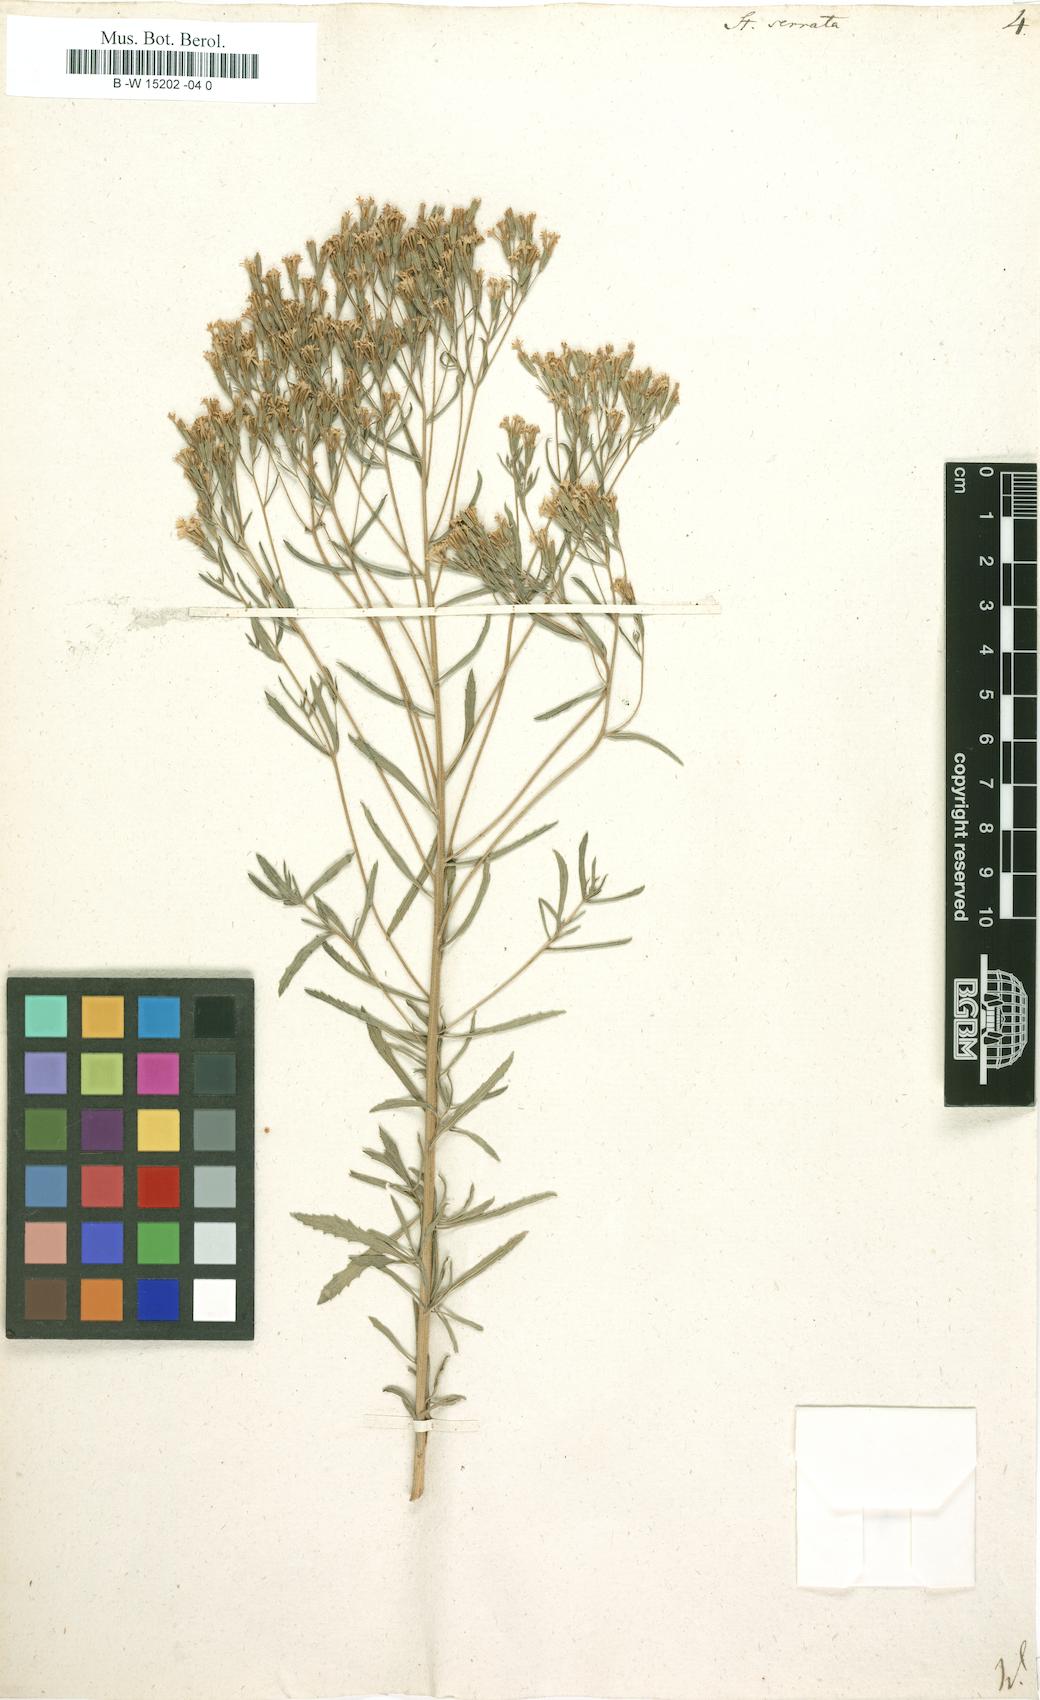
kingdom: Plantae
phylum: Tracheophyta
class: Magnoliopsida
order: Asterales
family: Asteraceae
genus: Stevia
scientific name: Stevia serrata
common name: Sawtooth candyleaf
